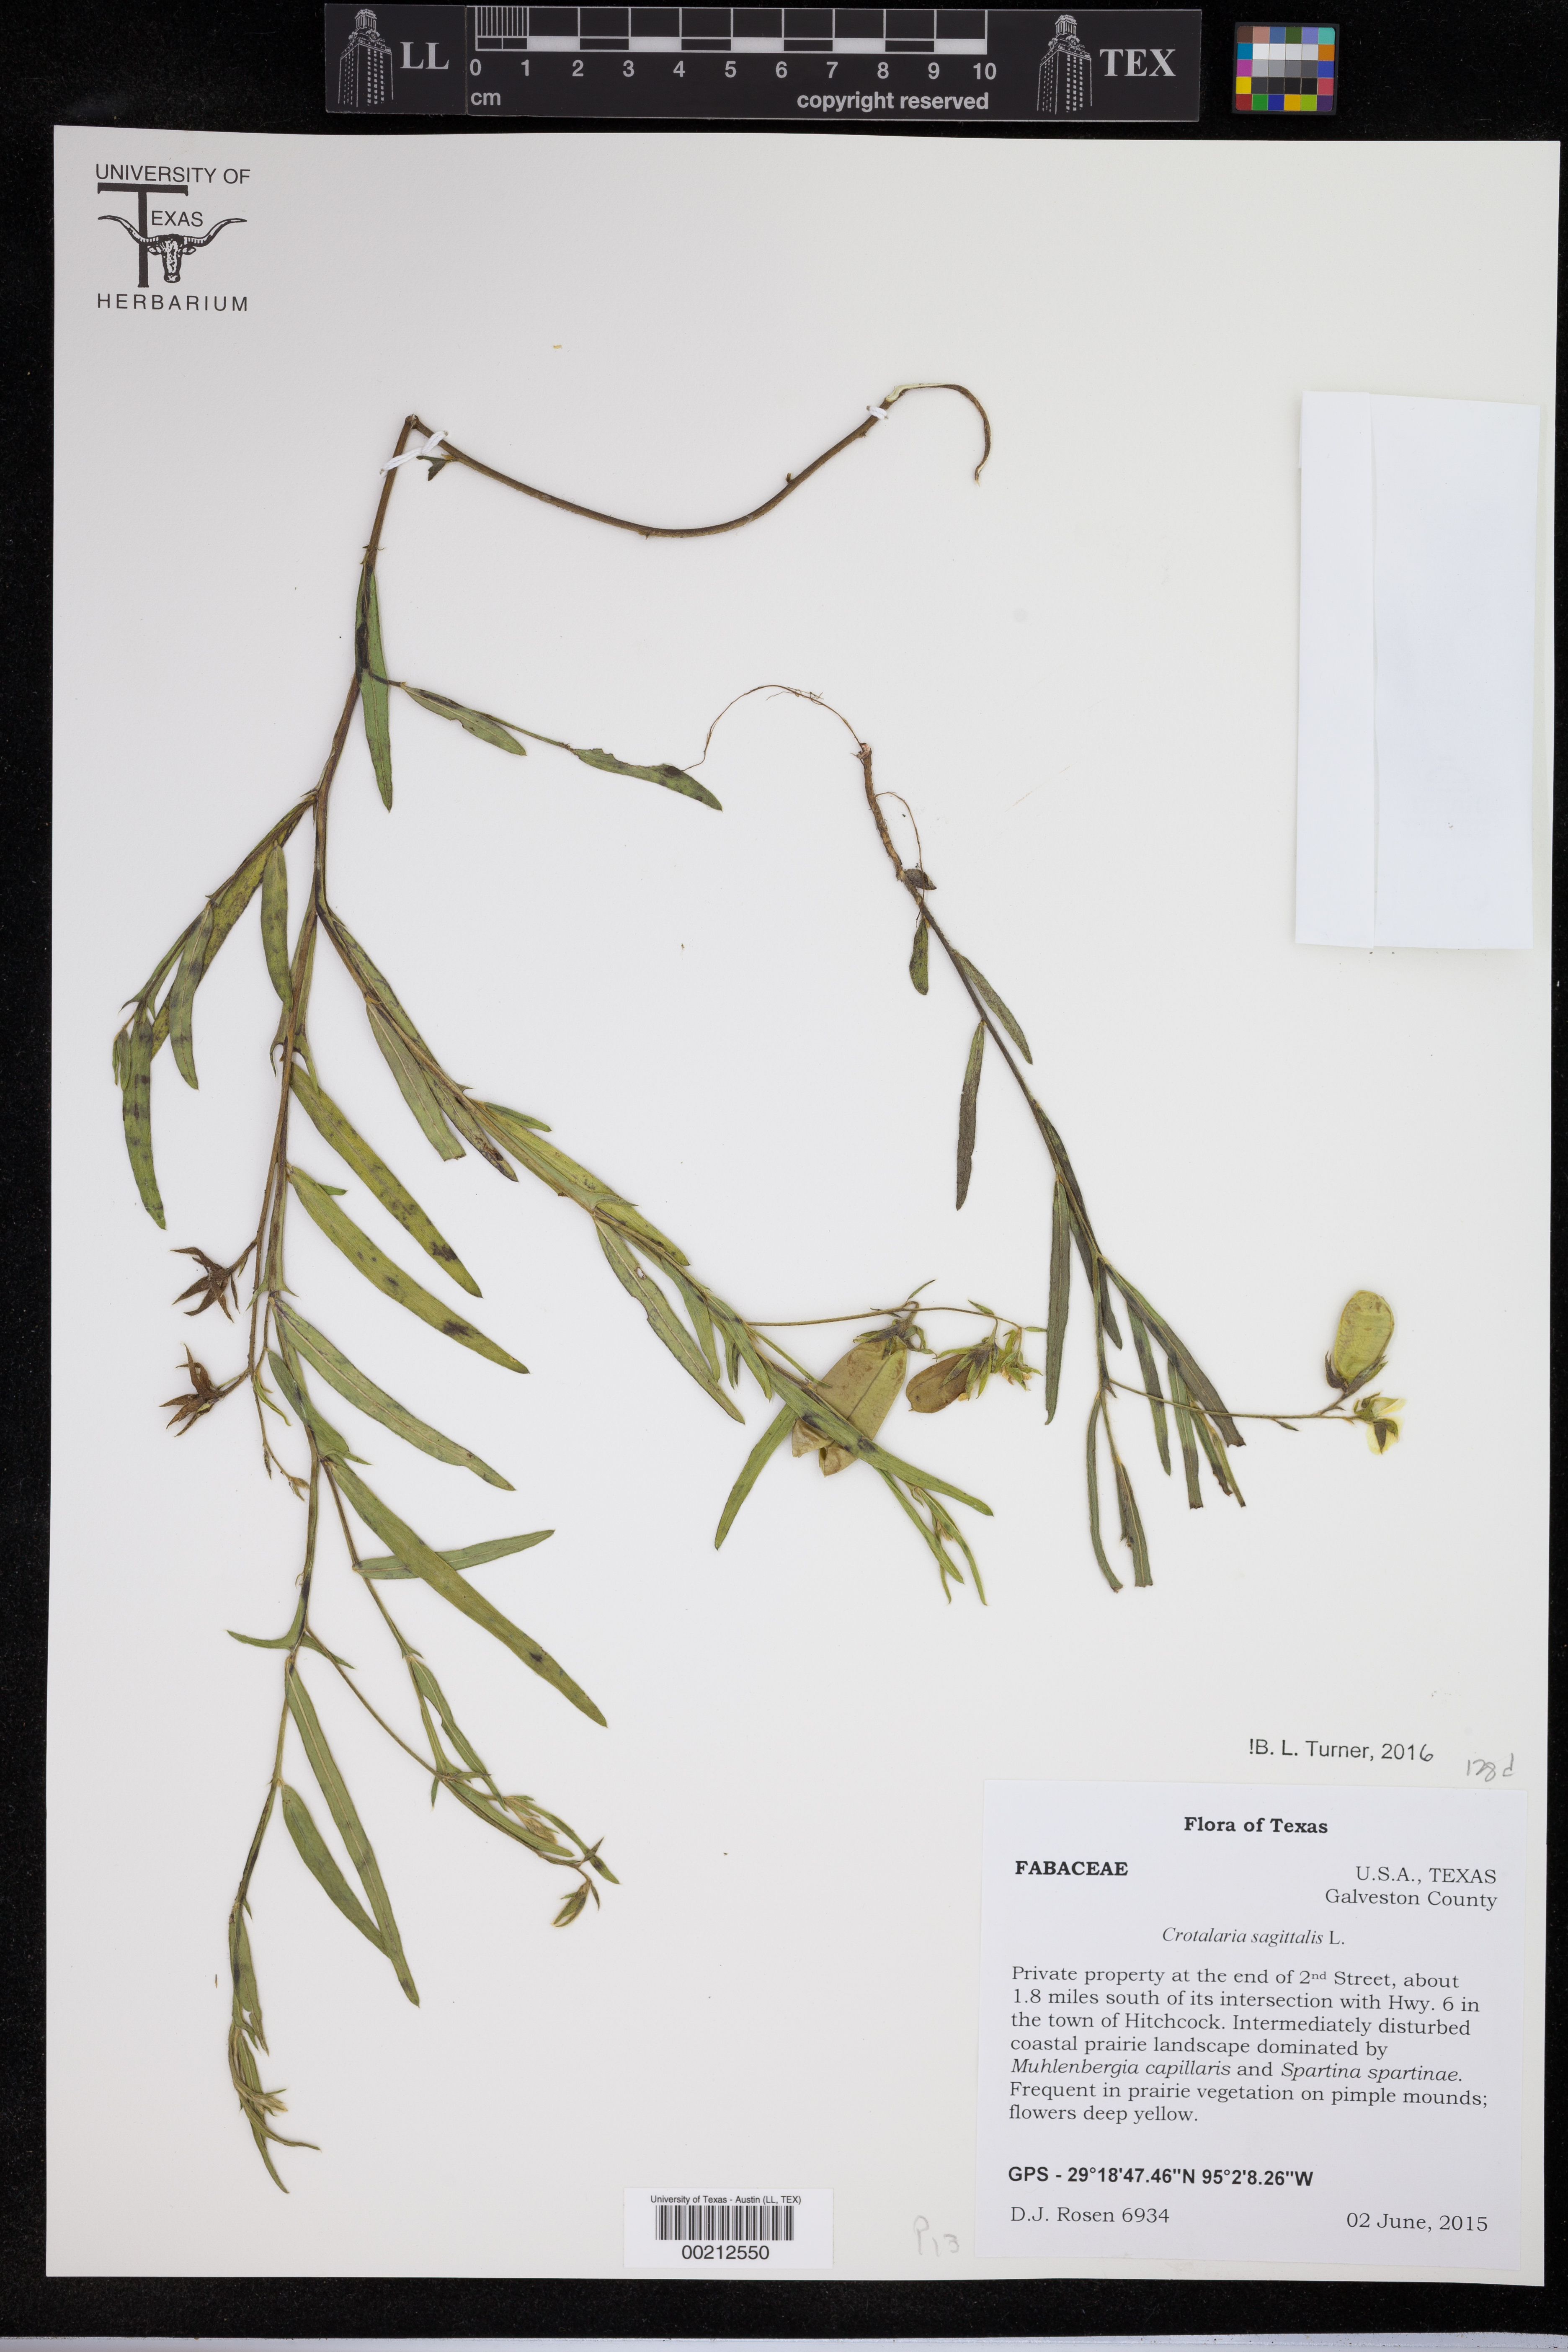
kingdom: Plantae
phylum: Tracheophyta
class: Magnoliopsida
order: Rosales
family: Rosaceae
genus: Spiraea
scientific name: Spiraea cantoniensis
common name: Reeves' meadowsweet
